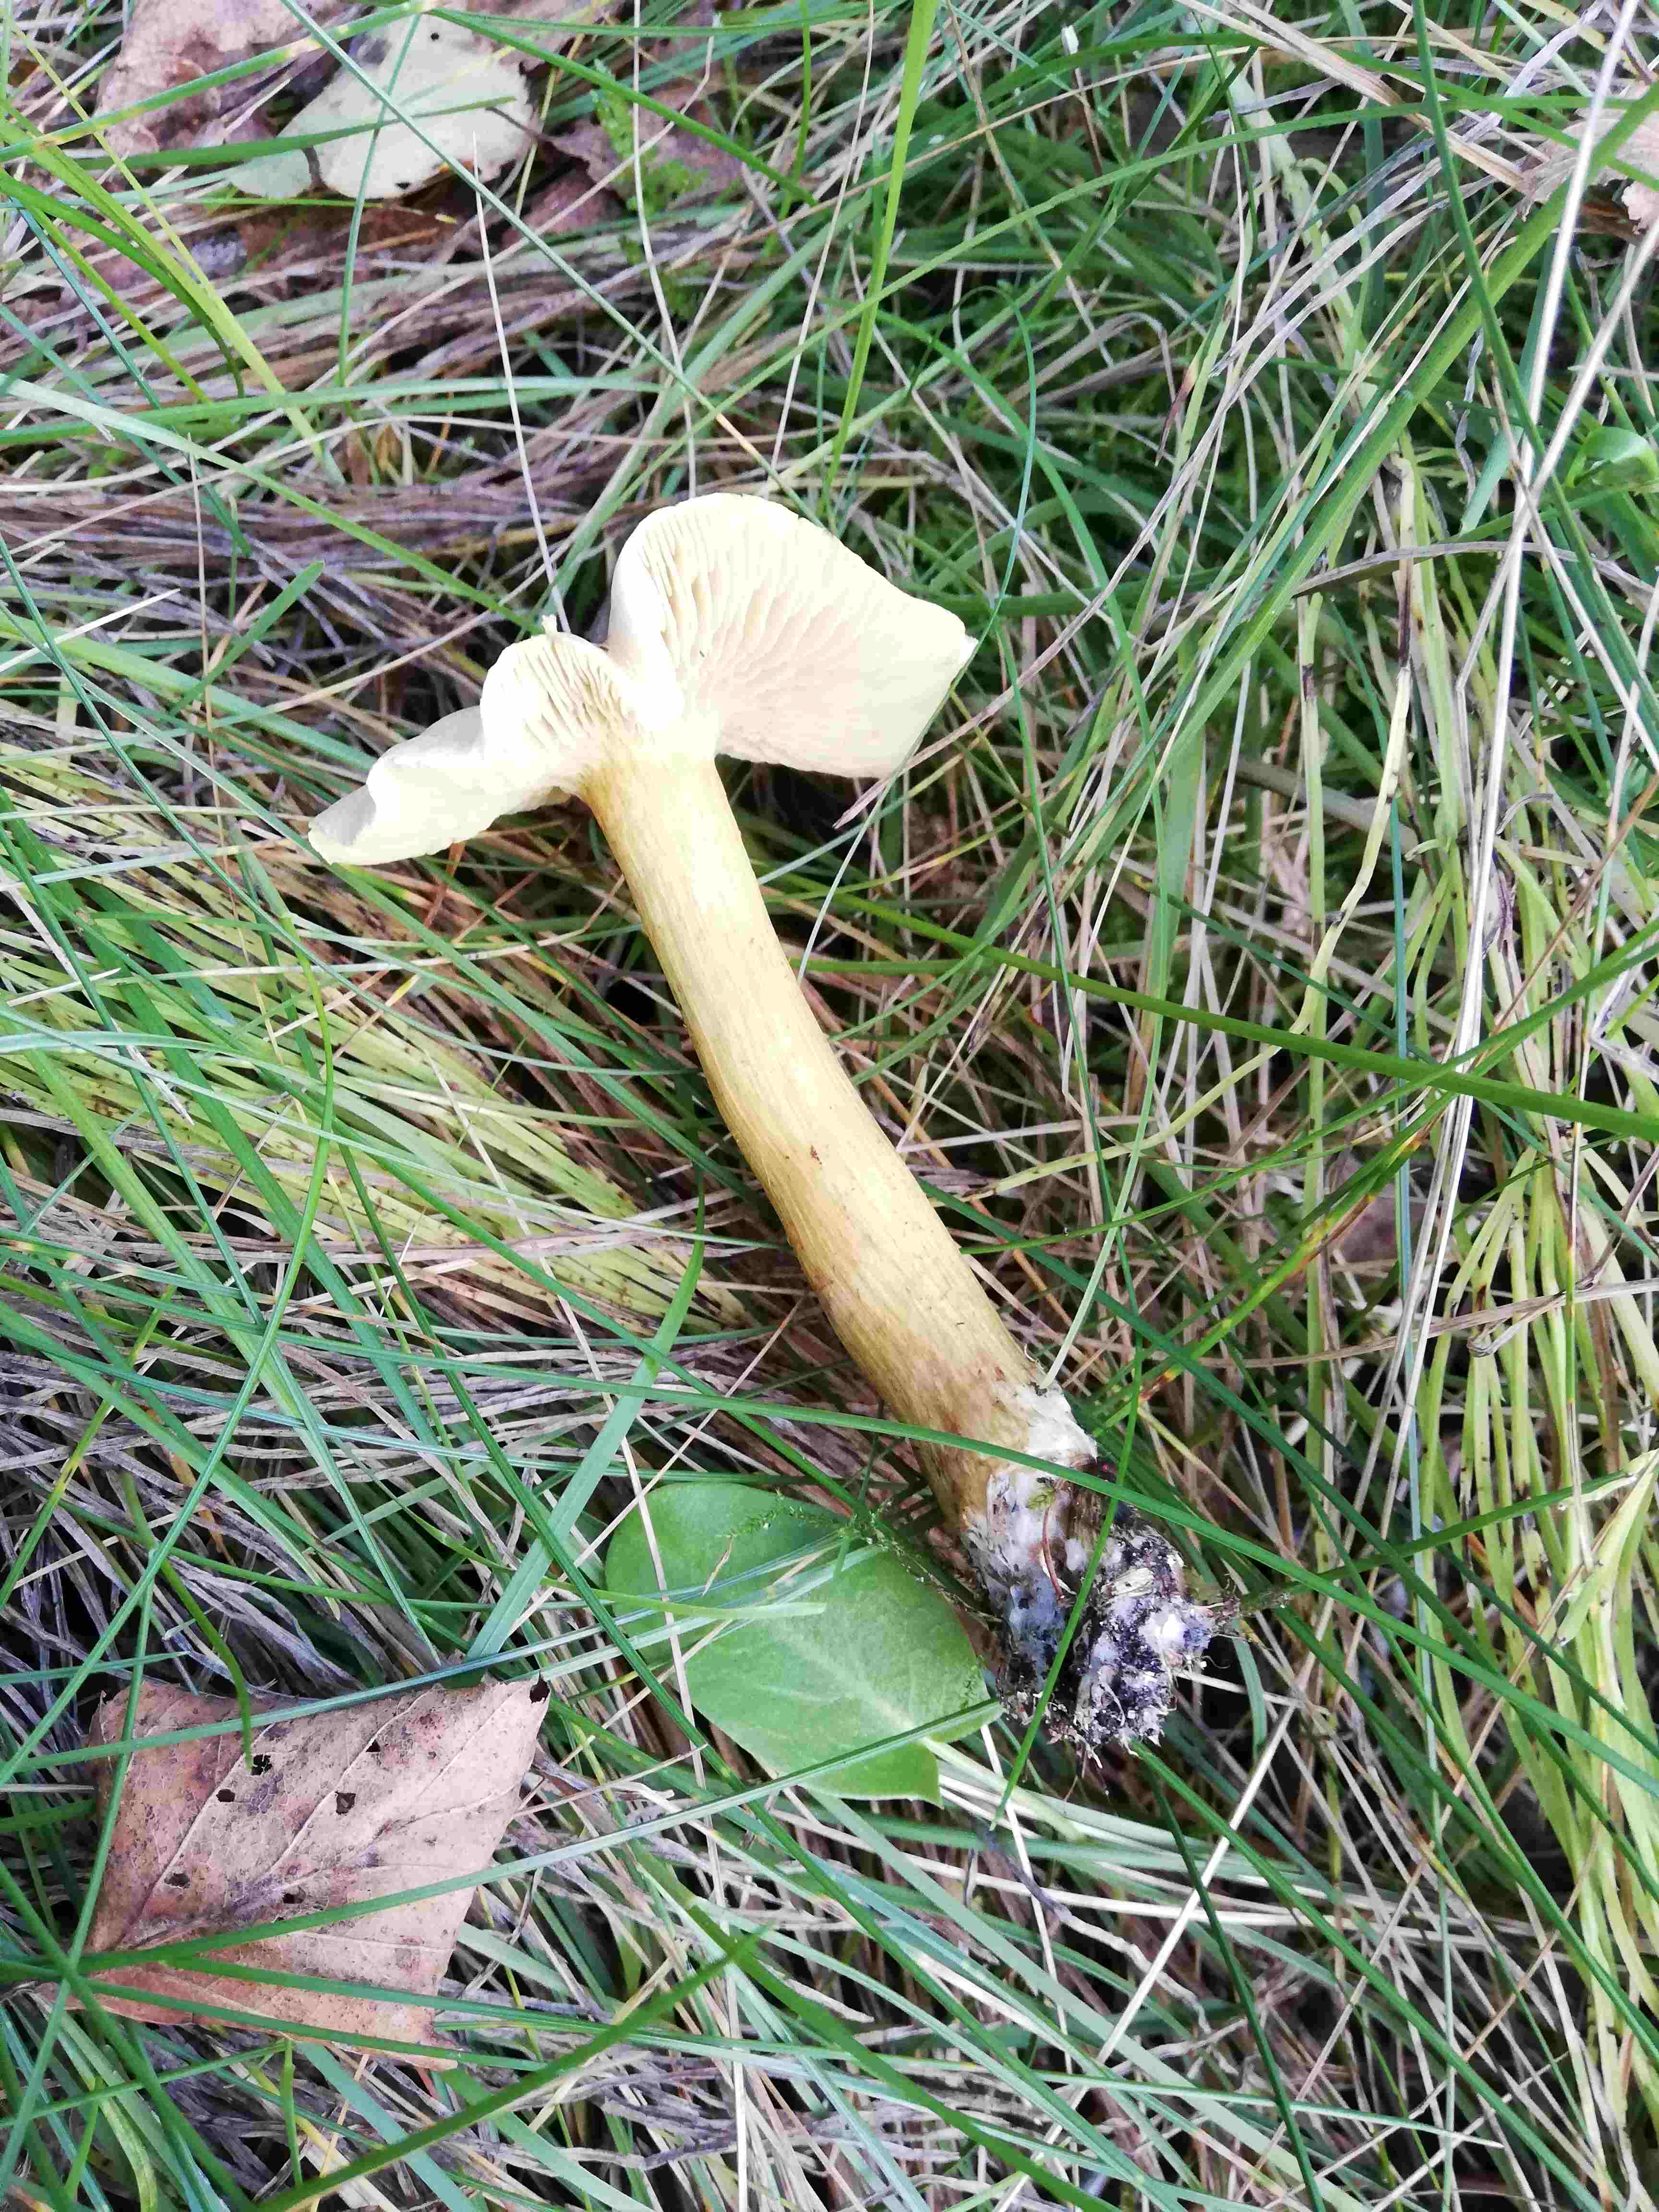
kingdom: Fungi
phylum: Basidiomycota
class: Agaricomycetes
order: Agaricales
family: Tricholomataceae
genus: Tricholoma
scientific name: Tricholoma sulphureum
